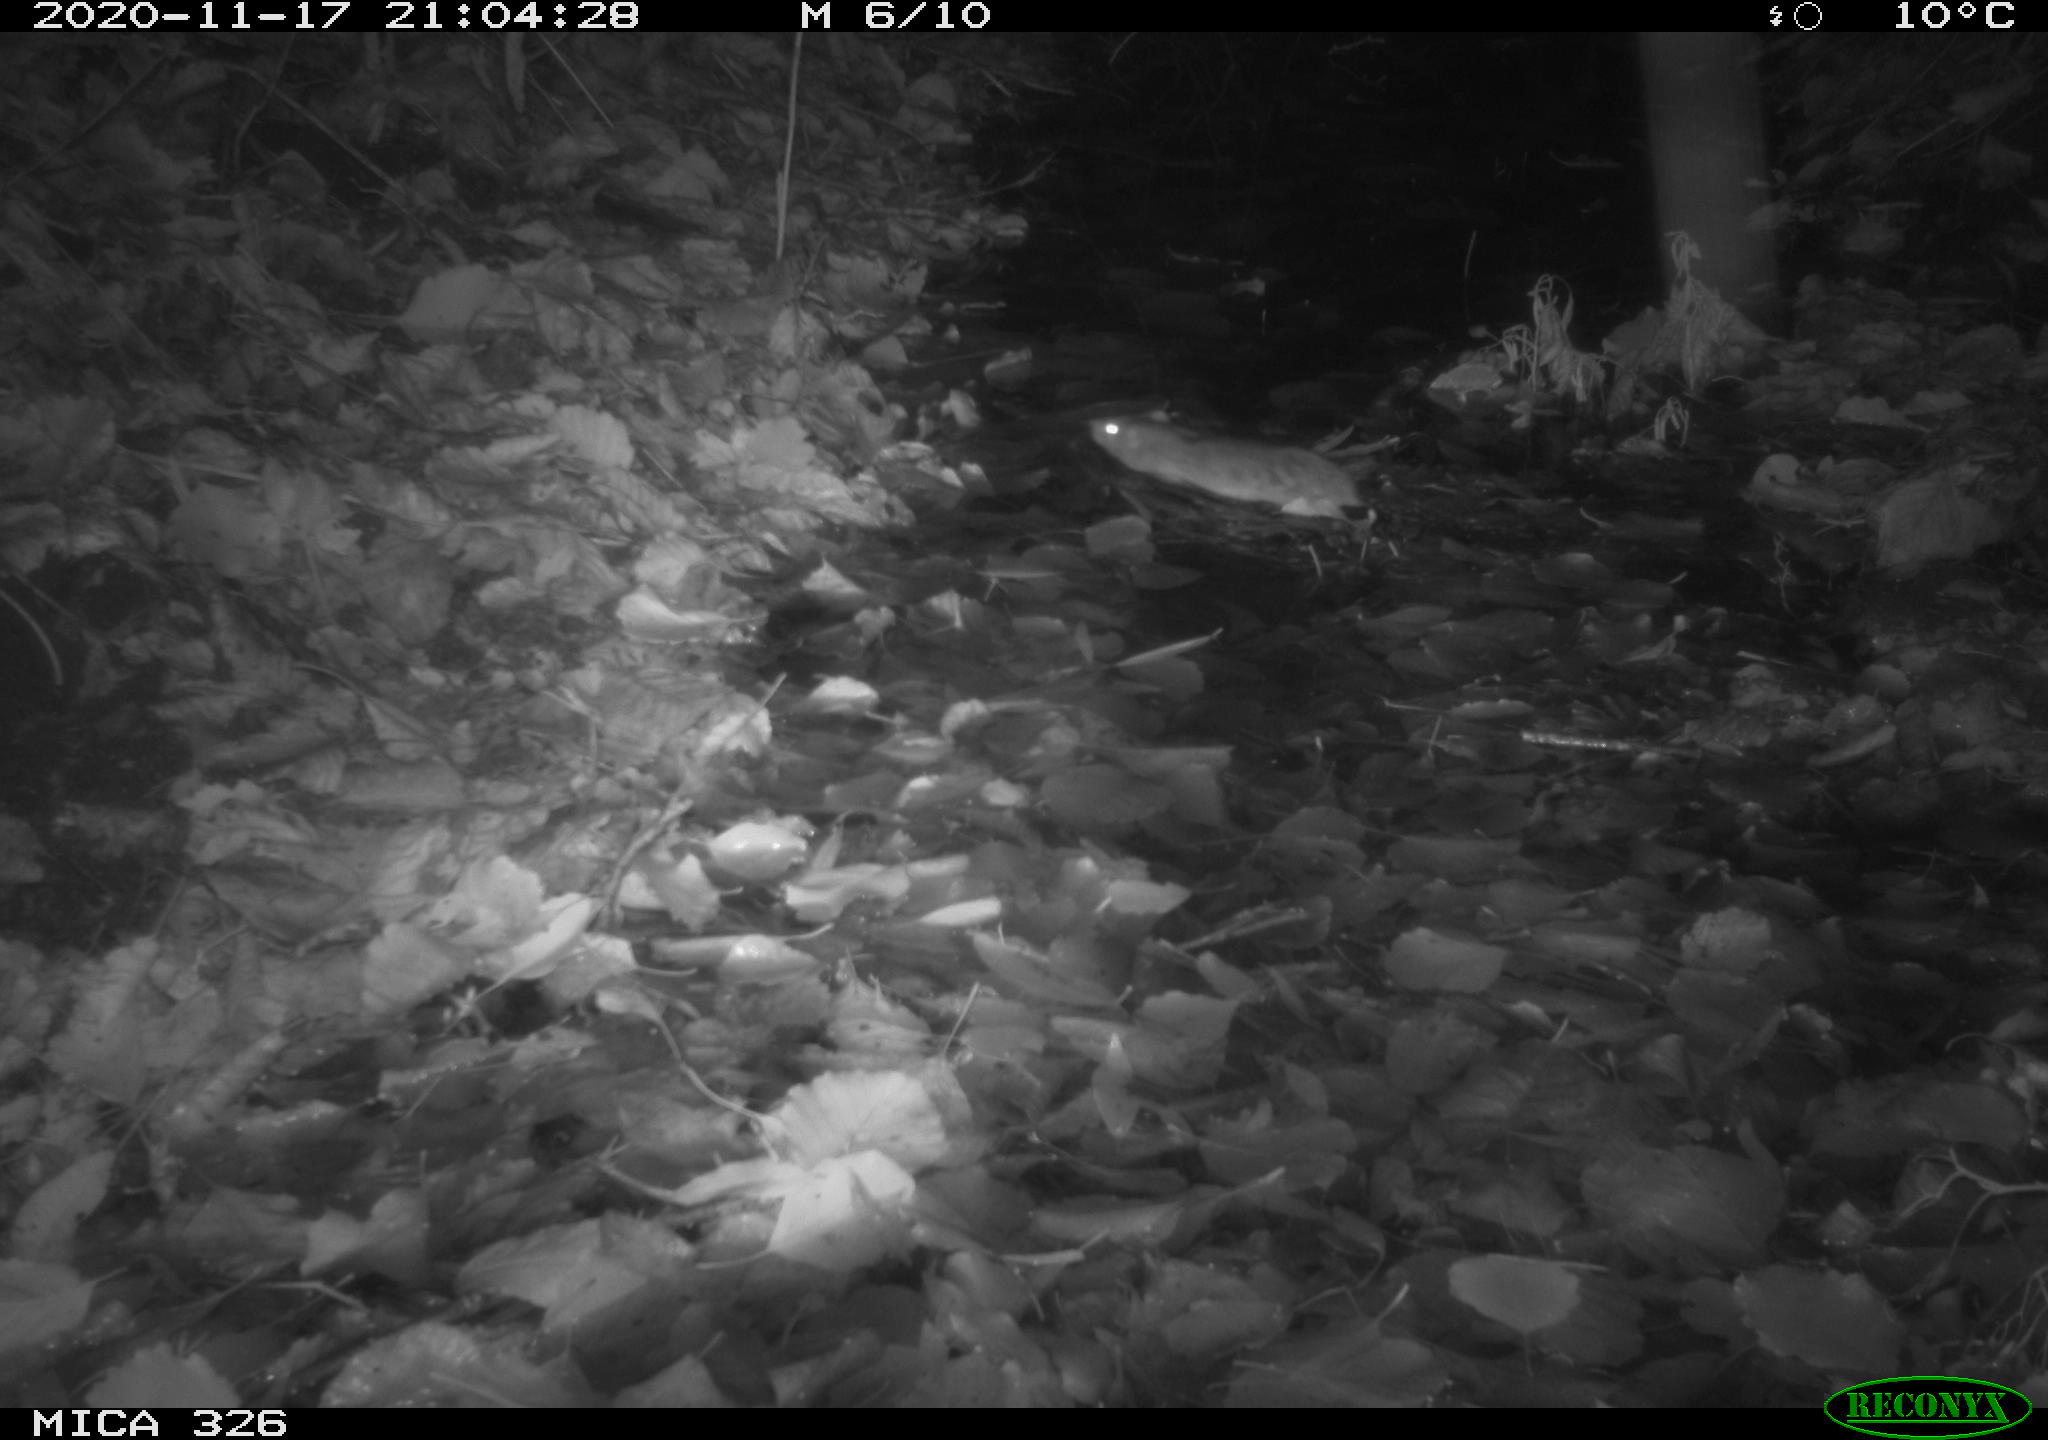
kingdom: Animalia
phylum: Chordata
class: Mammalia
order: Rodentia
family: Muridae
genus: Rattus
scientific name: Rattus norvegicus
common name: Brown rat
